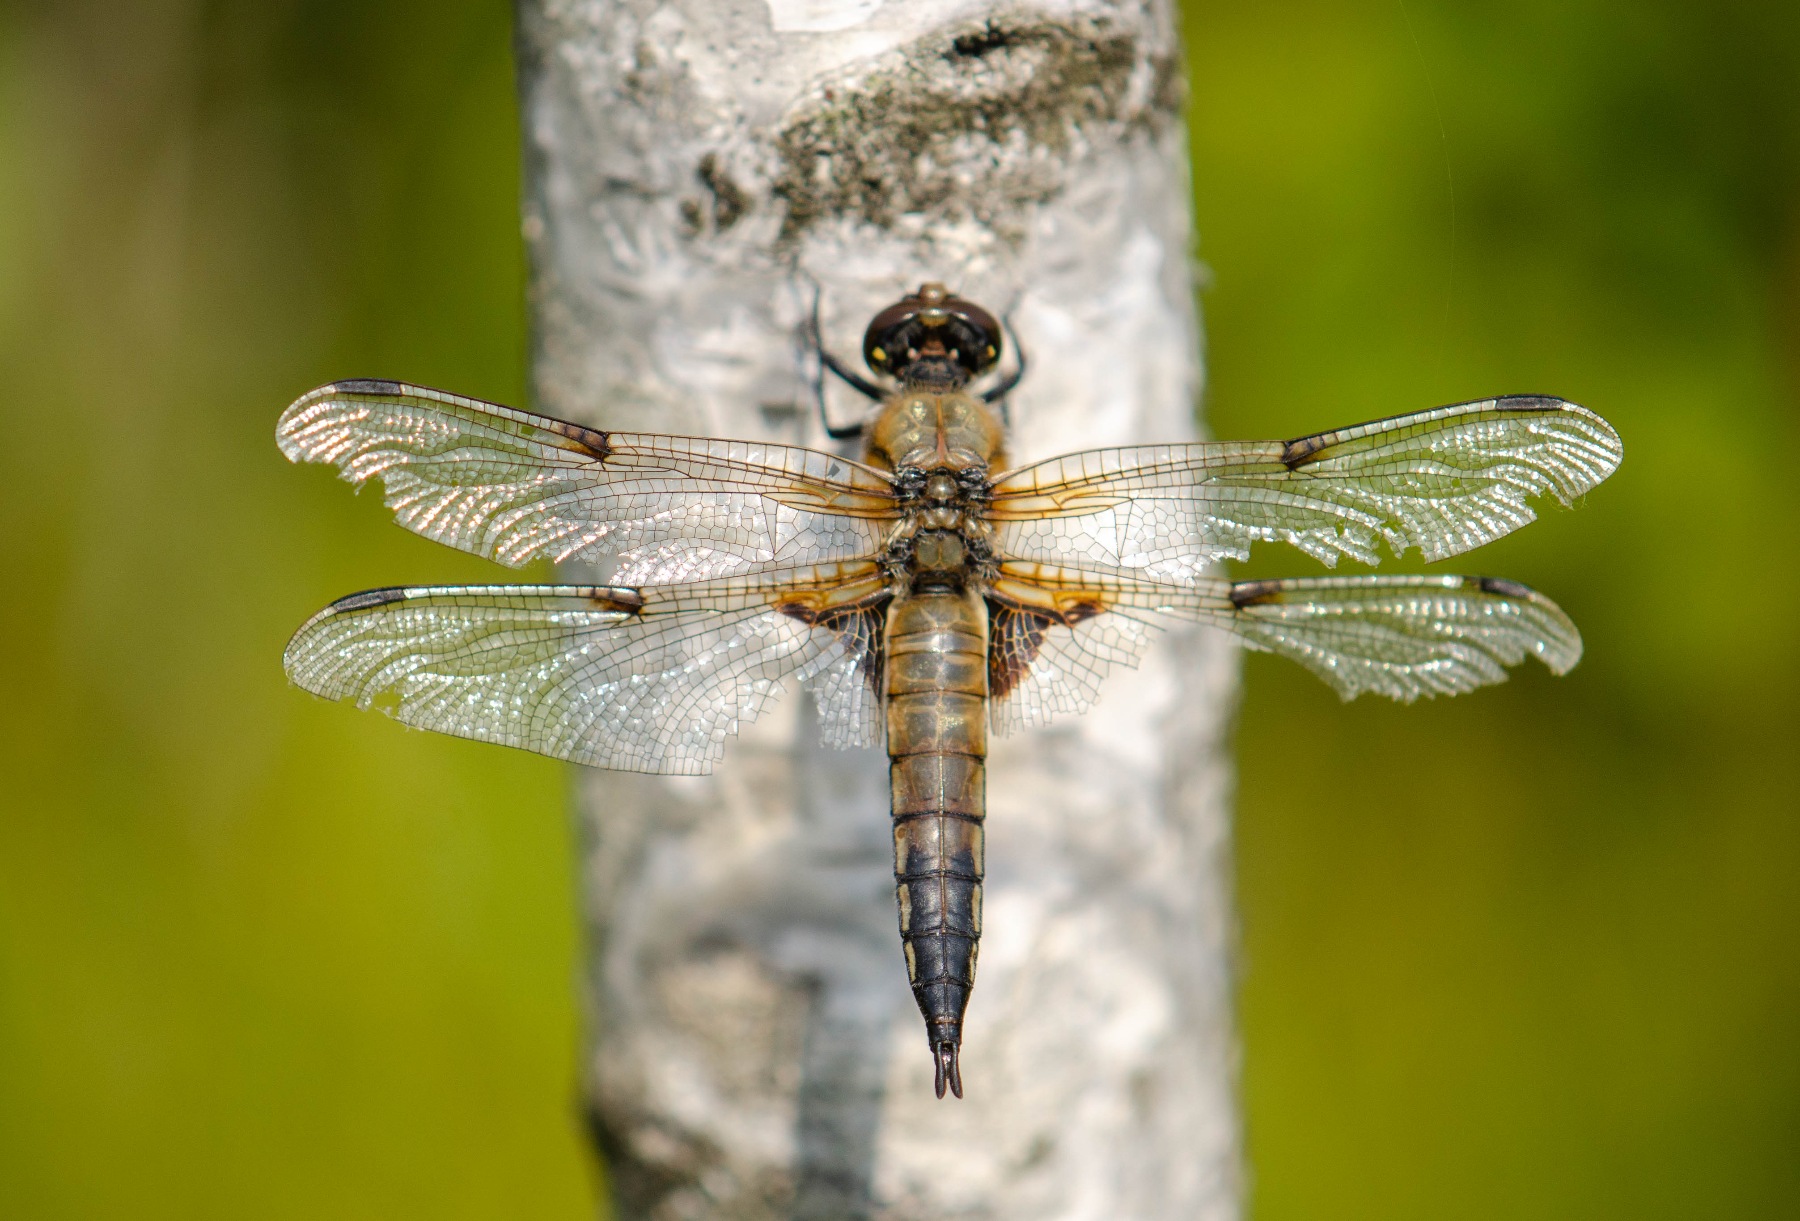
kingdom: Animalia
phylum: Arthropoda
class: Insecta
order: Odonata
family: Libellulidae
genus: Libellula
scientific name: Libellula quadrimaculata
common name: Fireplettet libel
